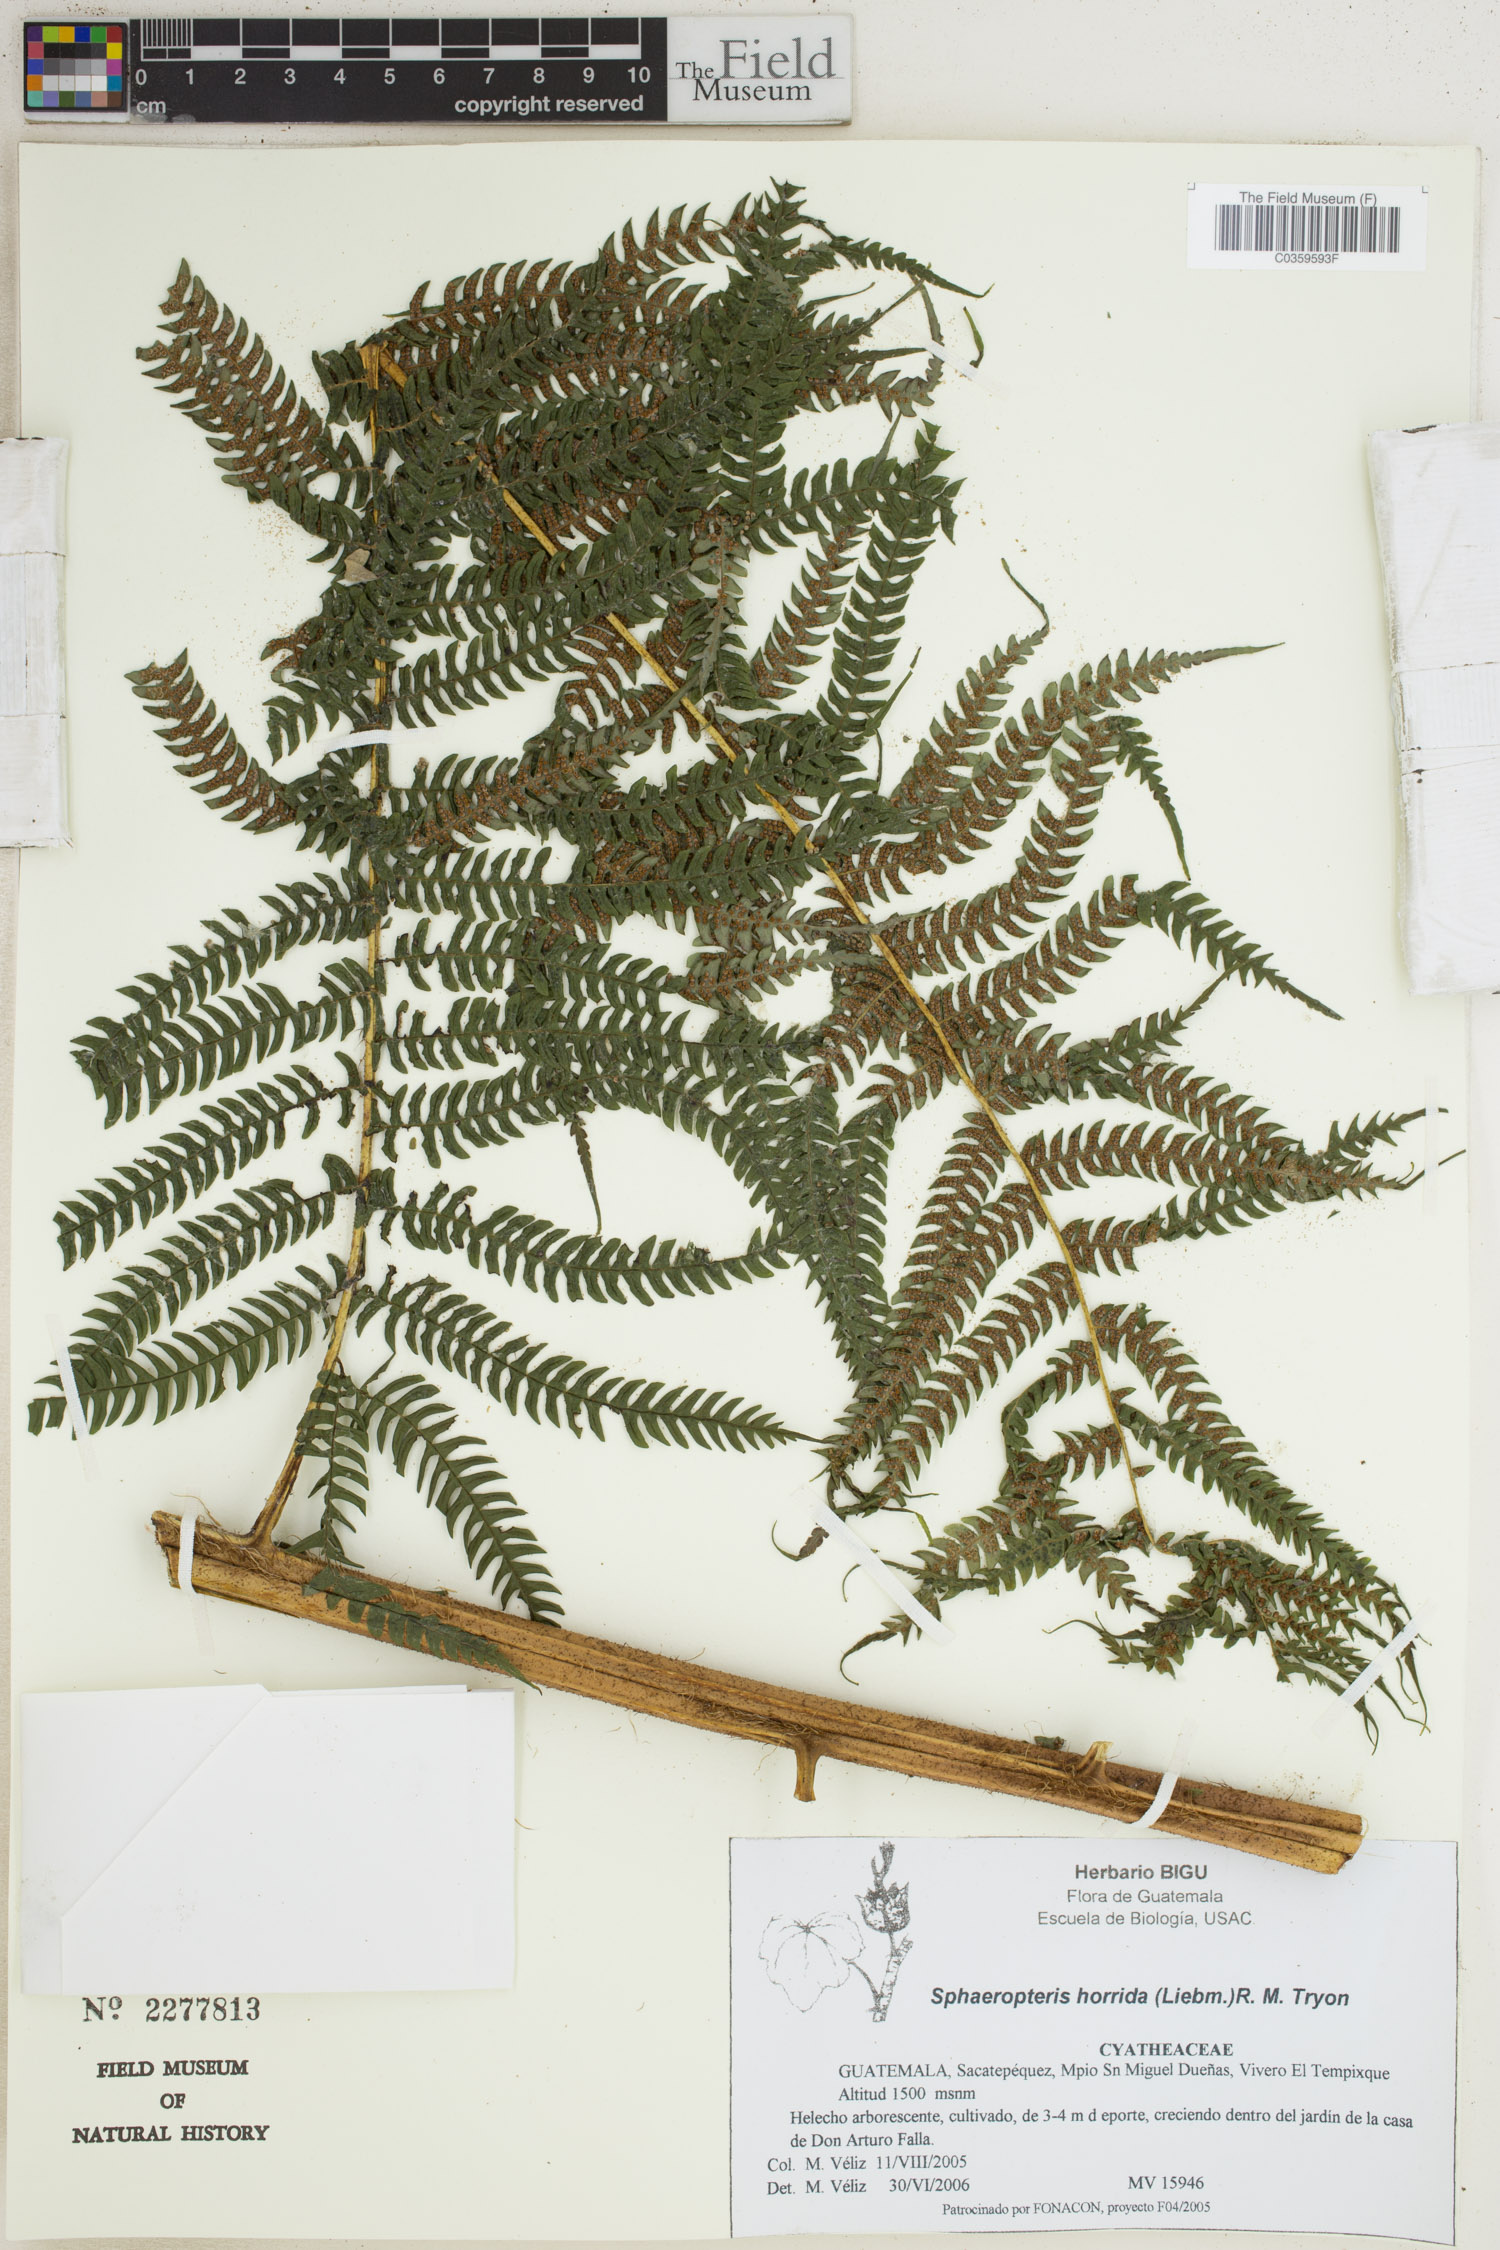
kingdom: Plantae
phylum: Tracheophyta
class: Polypodiopsida
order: Cyatheales
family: Cyatheaceae
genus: Sphaeropteris
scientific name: Sphaeropteris horrida
